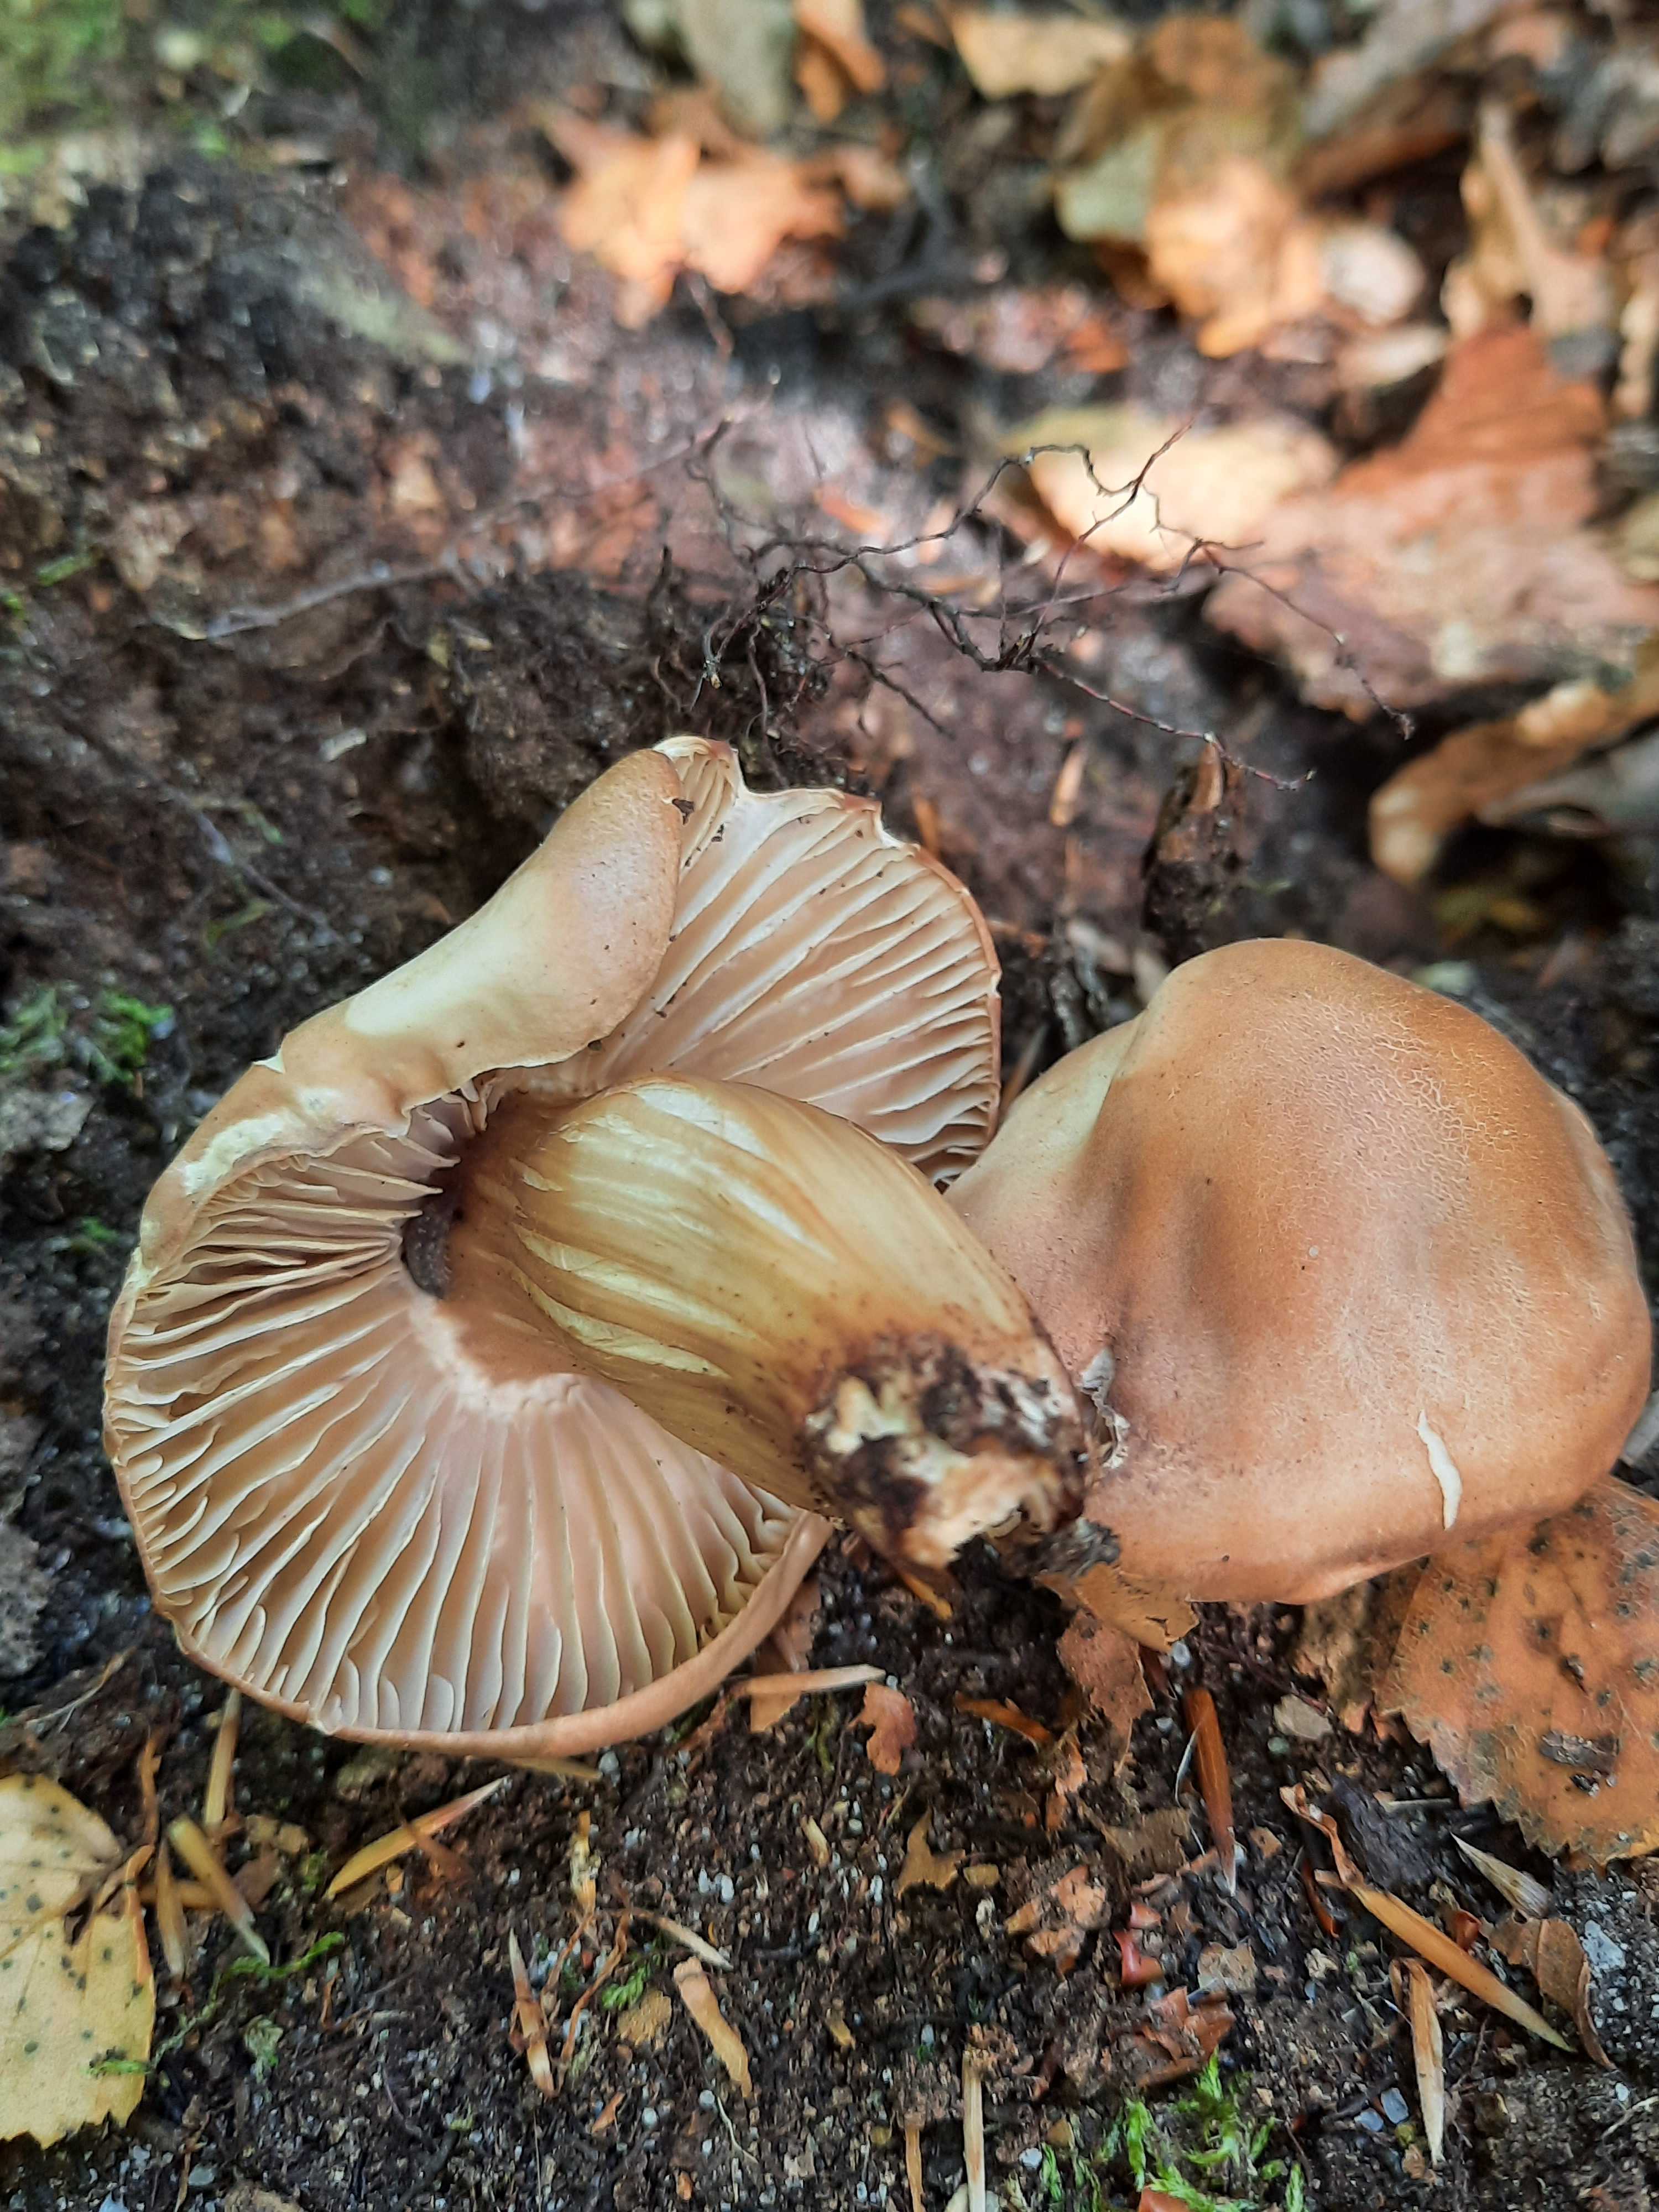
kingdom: Fungi
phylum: Basidiomycota
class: Agaricomycetes
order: Agaricales
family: Omphalotaceae
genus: Gymnopus
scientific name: Gymnopus fusipes
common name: tenstokket fladhat
